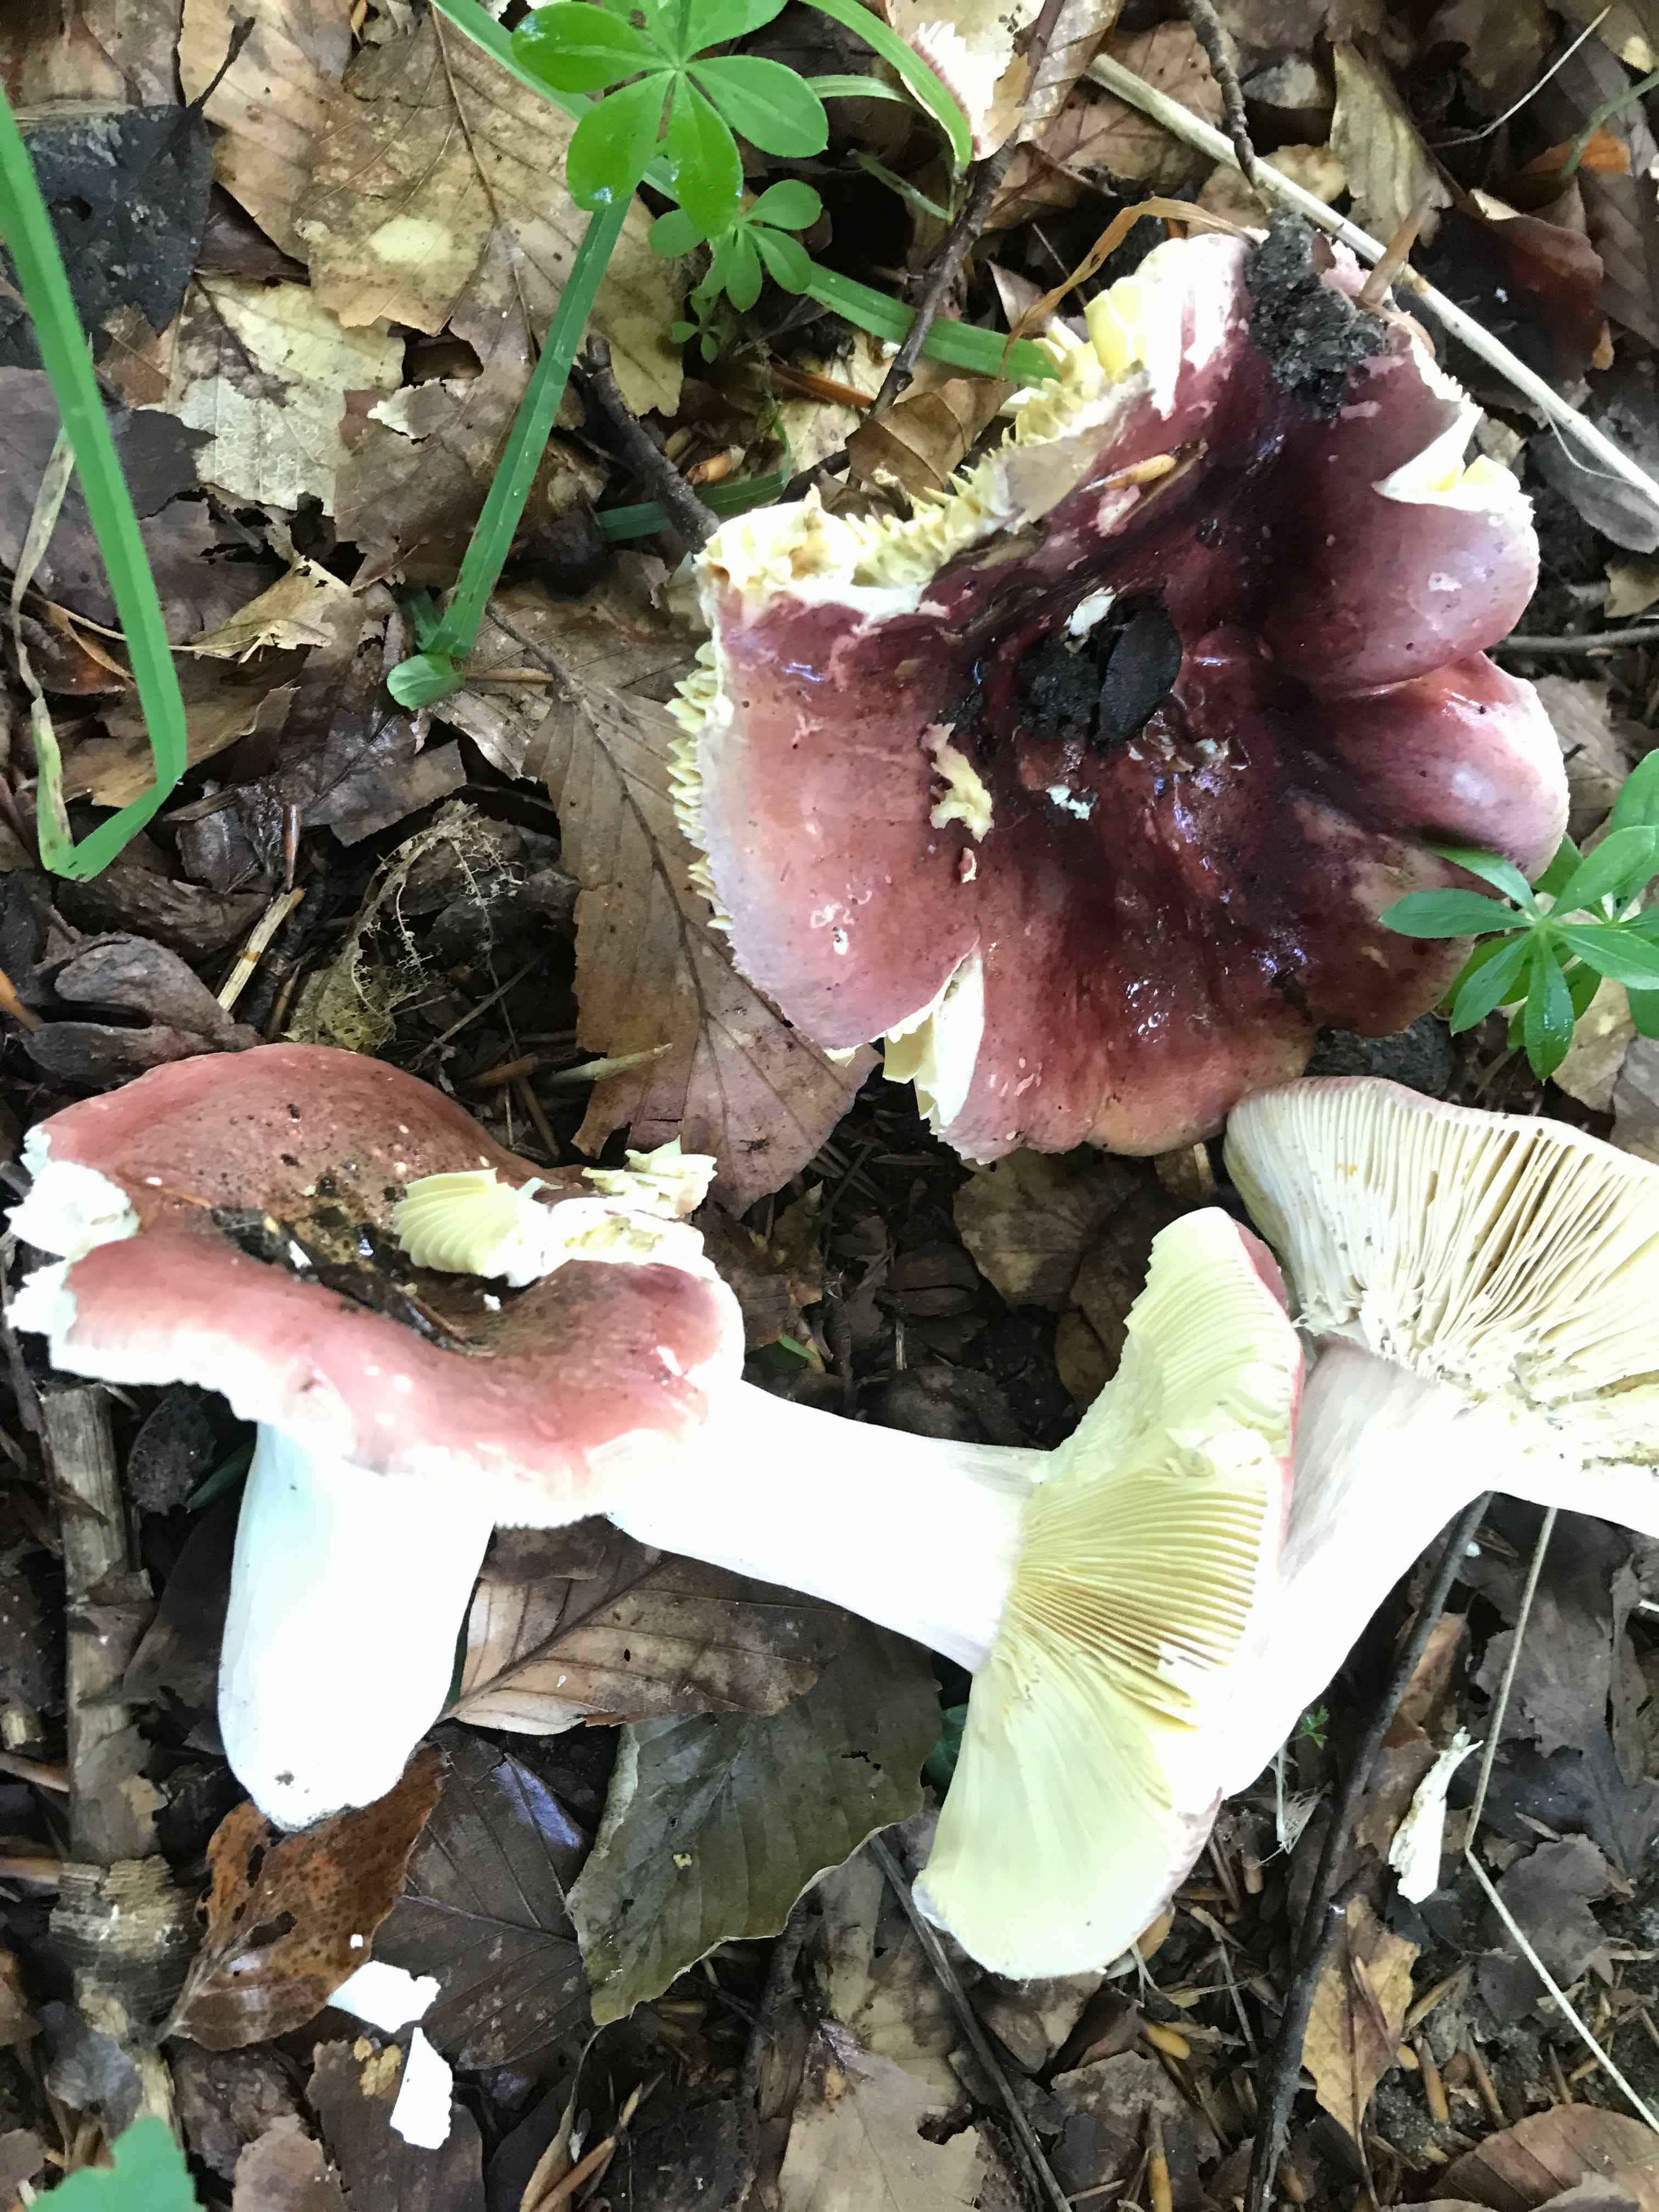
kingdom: Fungi
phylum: Basidiomycota
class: Agaricomycetes
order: Russulales
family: Russulaceae
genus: Russula
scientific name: Russula olivacea
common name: stor skørhat
